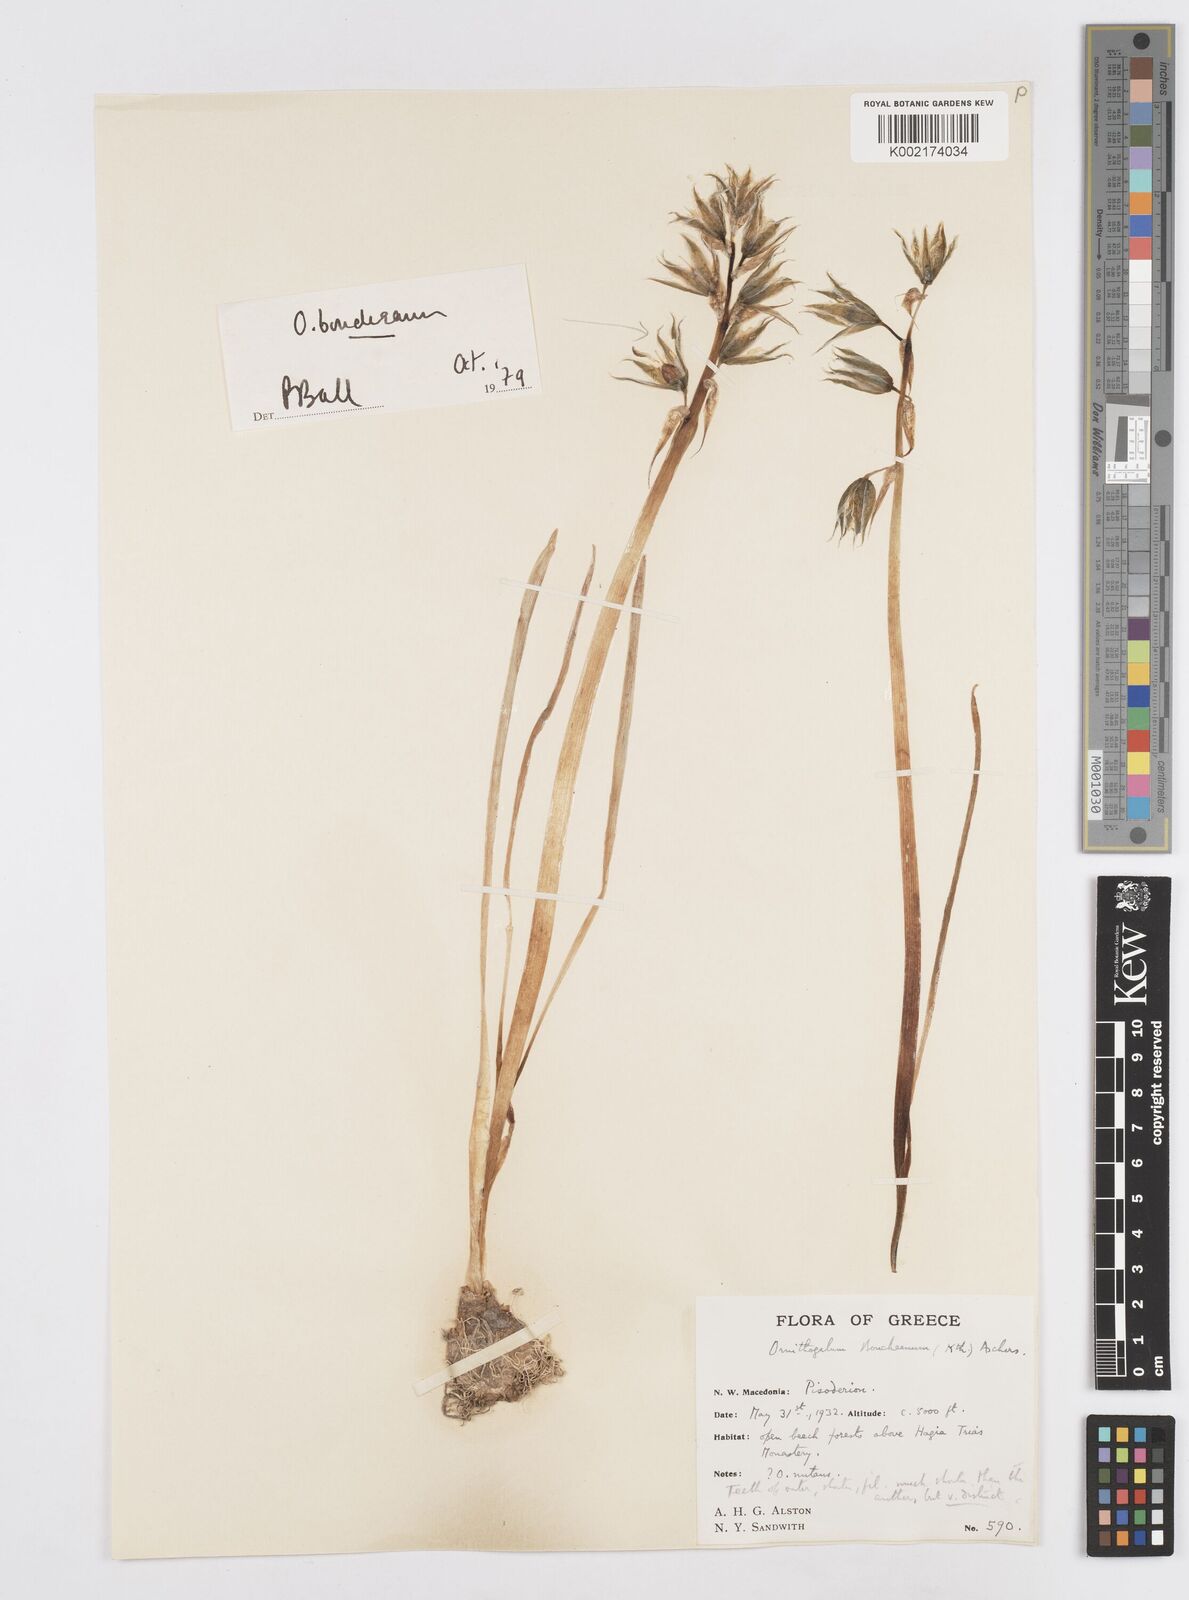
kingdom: Plantae
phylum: Tracheophyta
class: Liliopsida
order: Asparagales
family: Asparagaceae
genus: Ornithogalum
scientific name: Ornithogalum boucheanum
